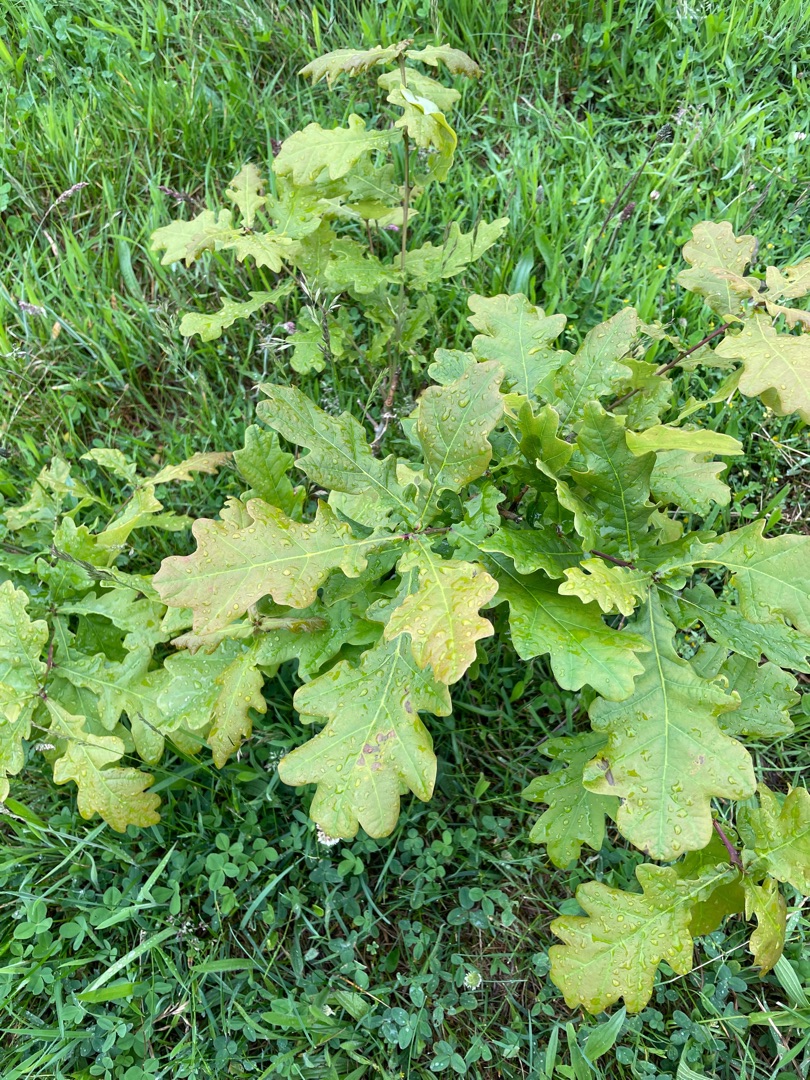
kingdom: Plantae
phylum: Tracheophyta
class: Magnoliopsida
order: Fagales
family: Fagaceae
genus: Quercus
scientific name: Quercus robur
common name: Stilk-eg/almindelig eg
